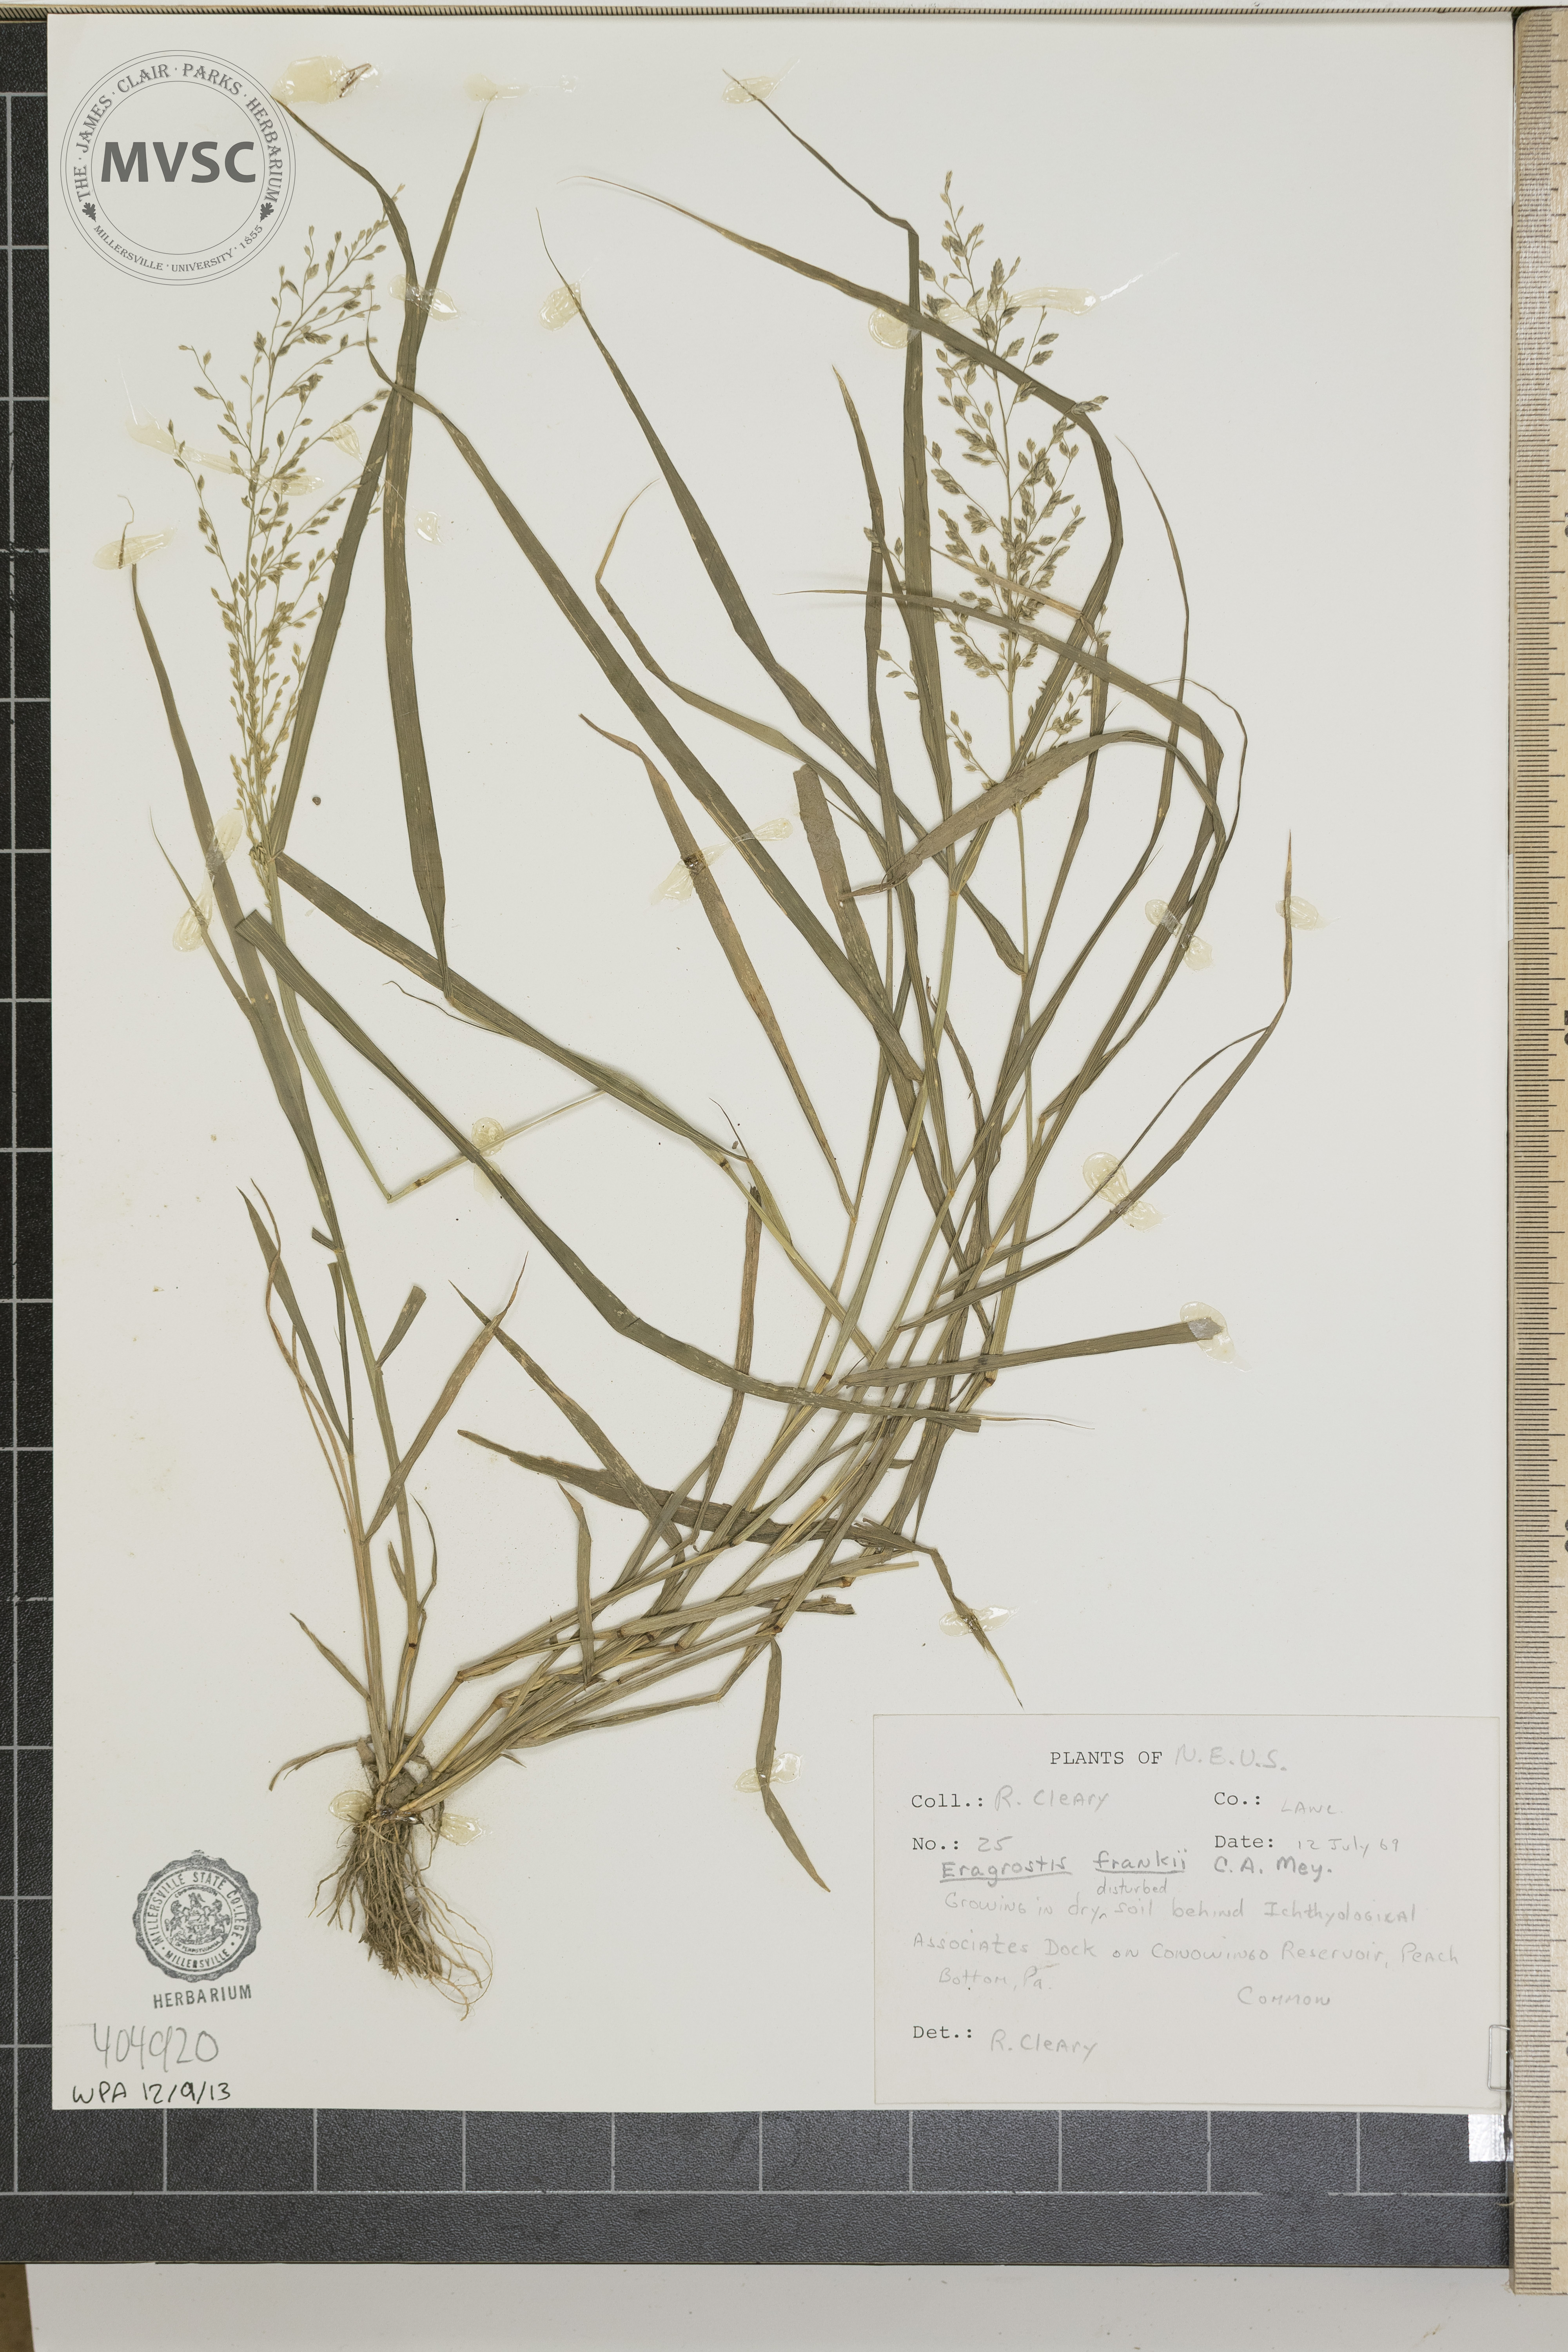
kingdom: Plantae
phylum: Tracheophyta
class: Liliopsida
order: Poales
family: Poaceae
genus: Eragrostis
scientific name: Eragrostis frankii
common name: Frank's lovegrass
